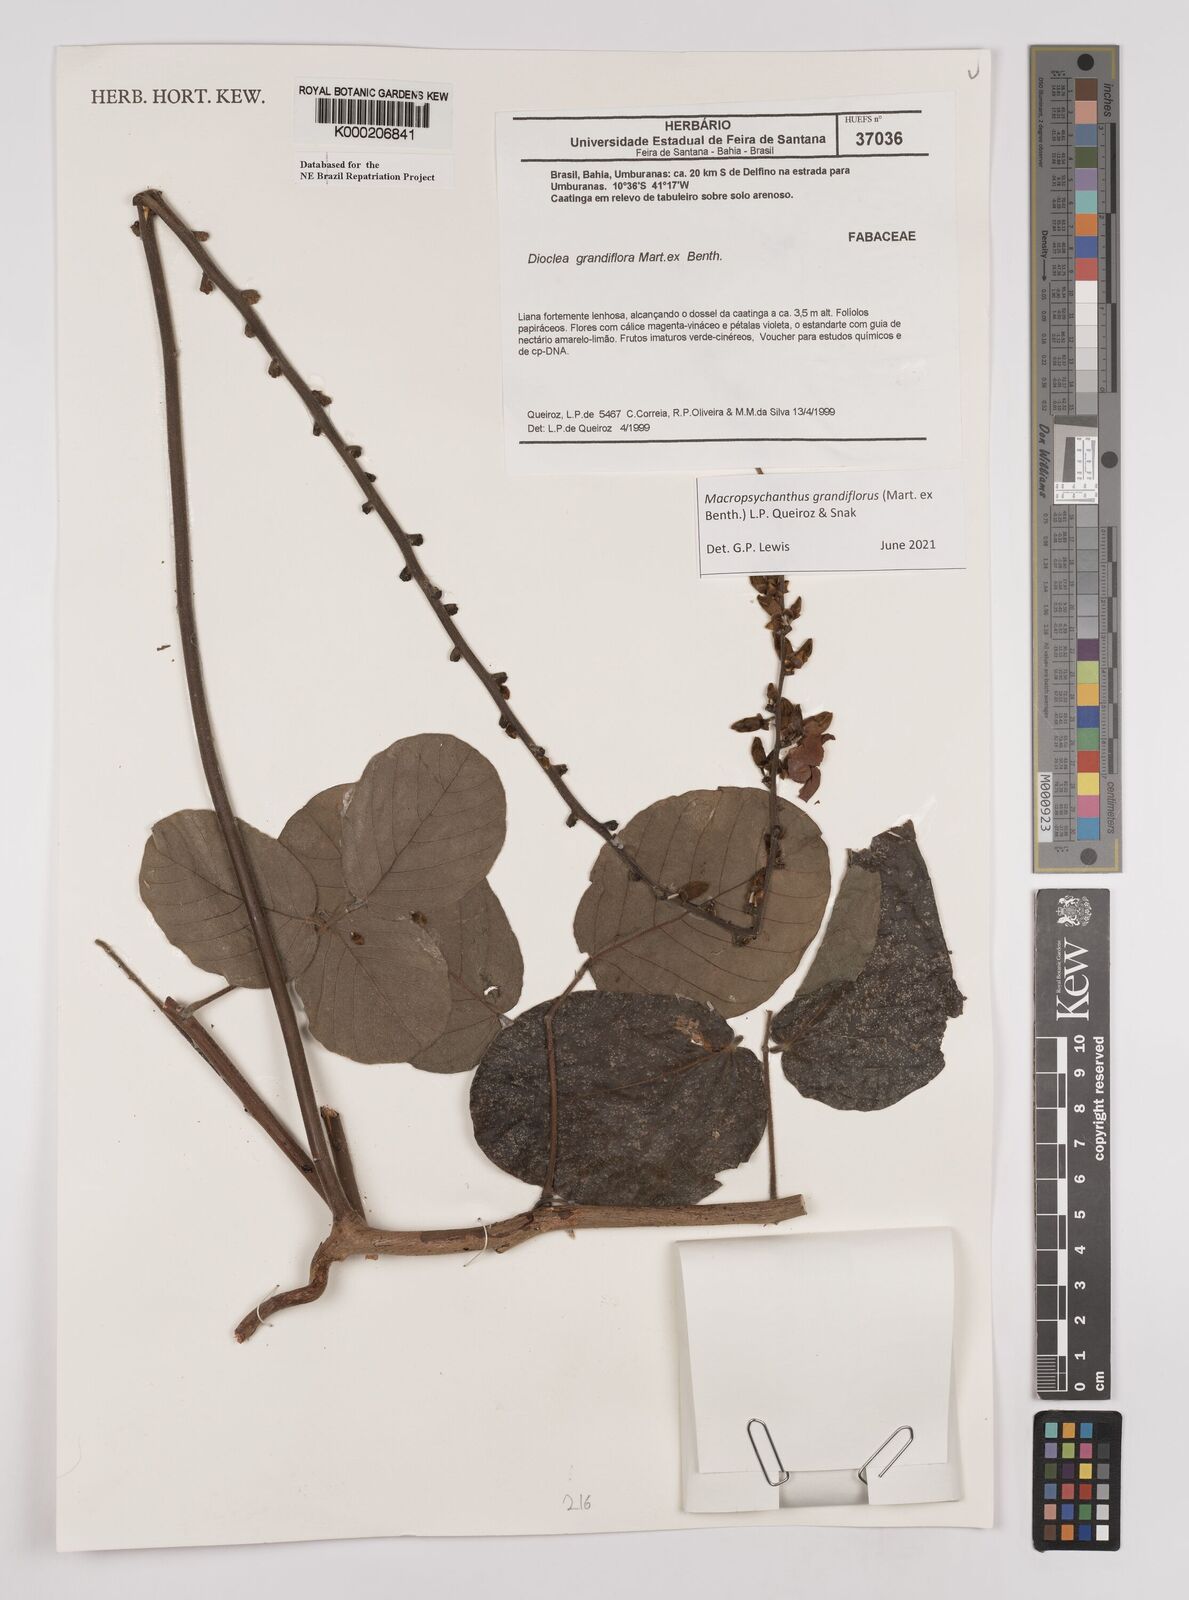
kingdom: Plantae
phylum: Tracheophyta
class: Magnoliopsida
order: Fabales
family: Fabaceae
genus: Macropsychanthus
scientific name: Macropsychanthus grandiflorus
